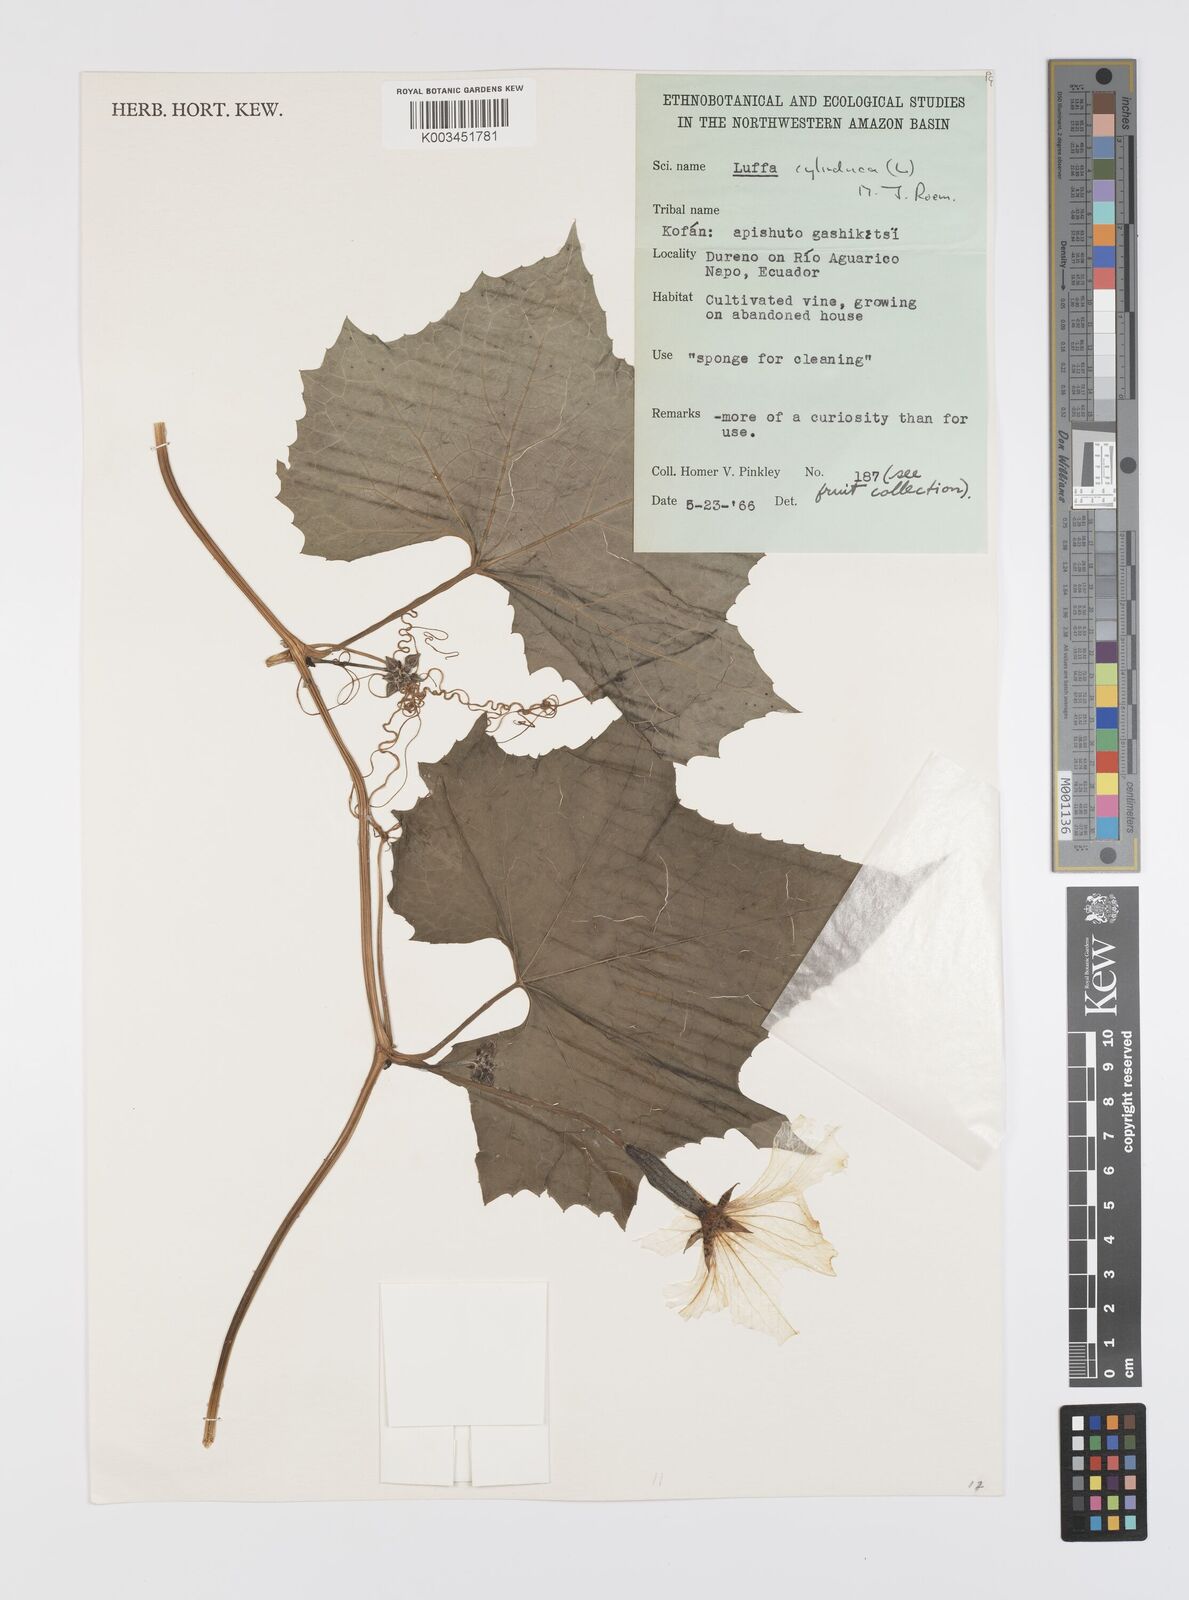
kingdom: Plantae
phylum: Tracheophyta
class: Magnoliopsida
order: Cucurbitales
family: Cucurbitaceae
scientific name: Cucurbitaceae
